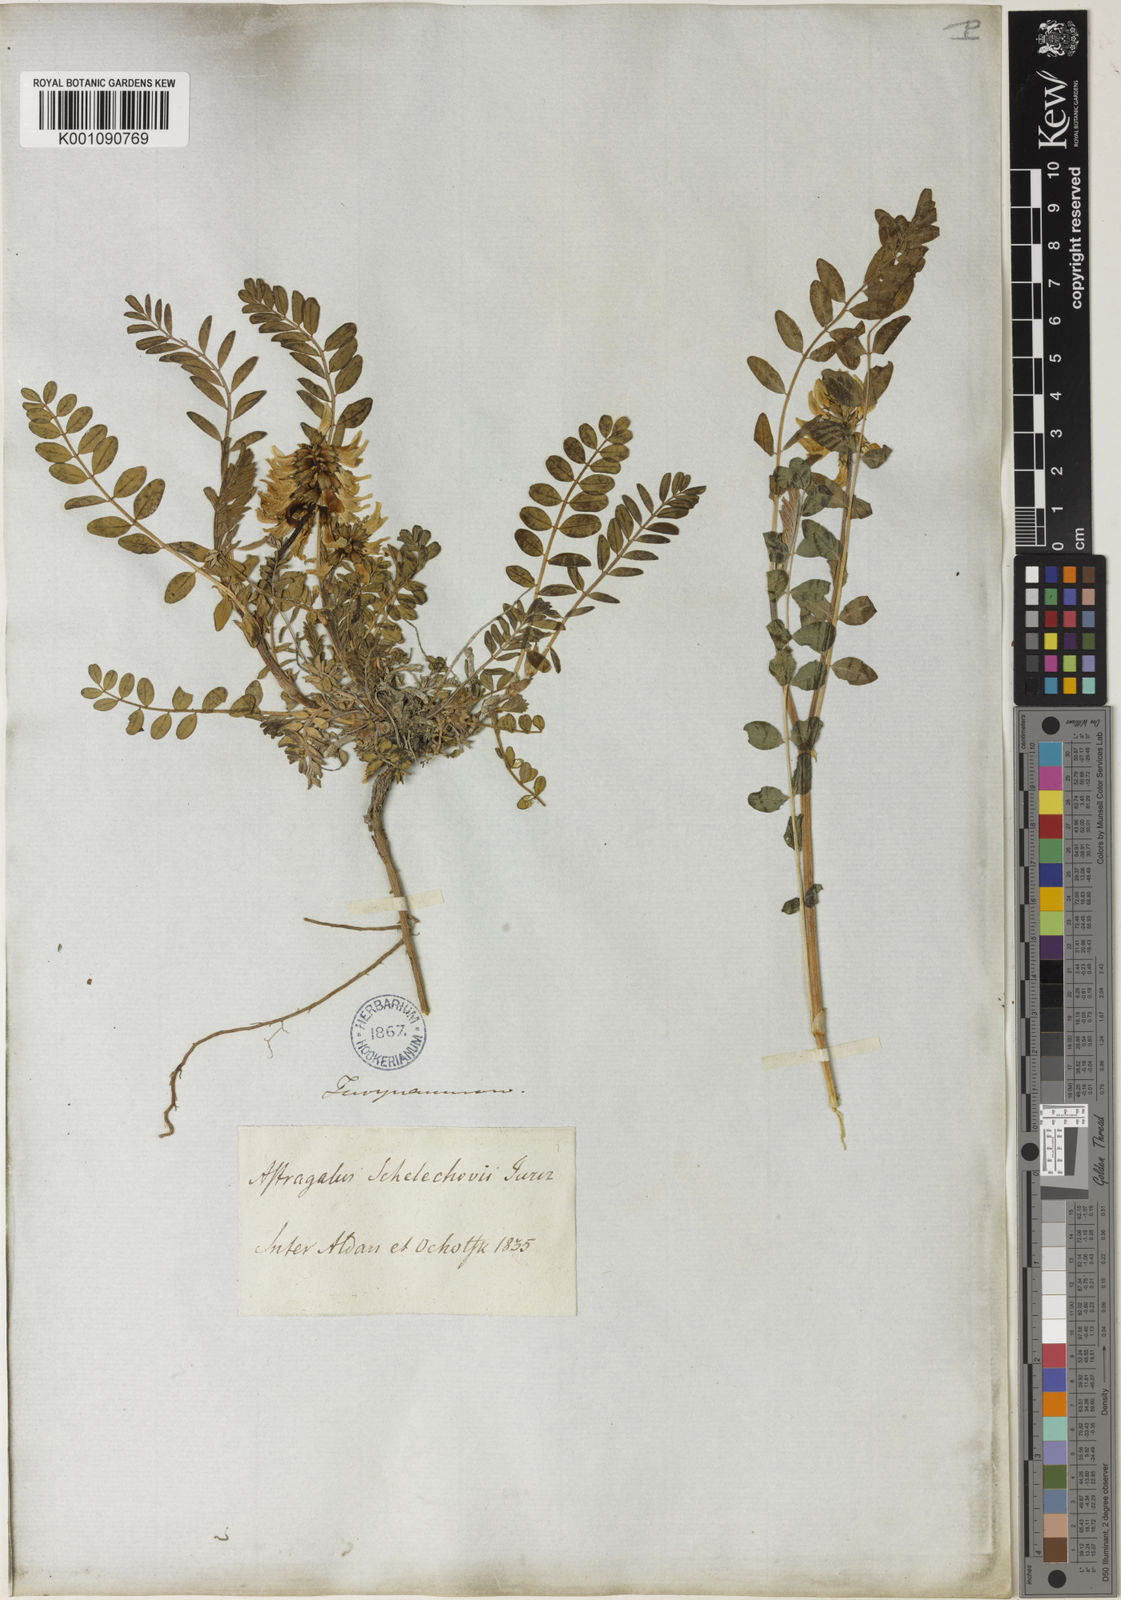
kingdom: Plantae
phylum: Tracheophyta
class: Magnoliopsida
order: Fabales
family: Fabaceae
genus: Astragalus
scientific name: Astragalus
